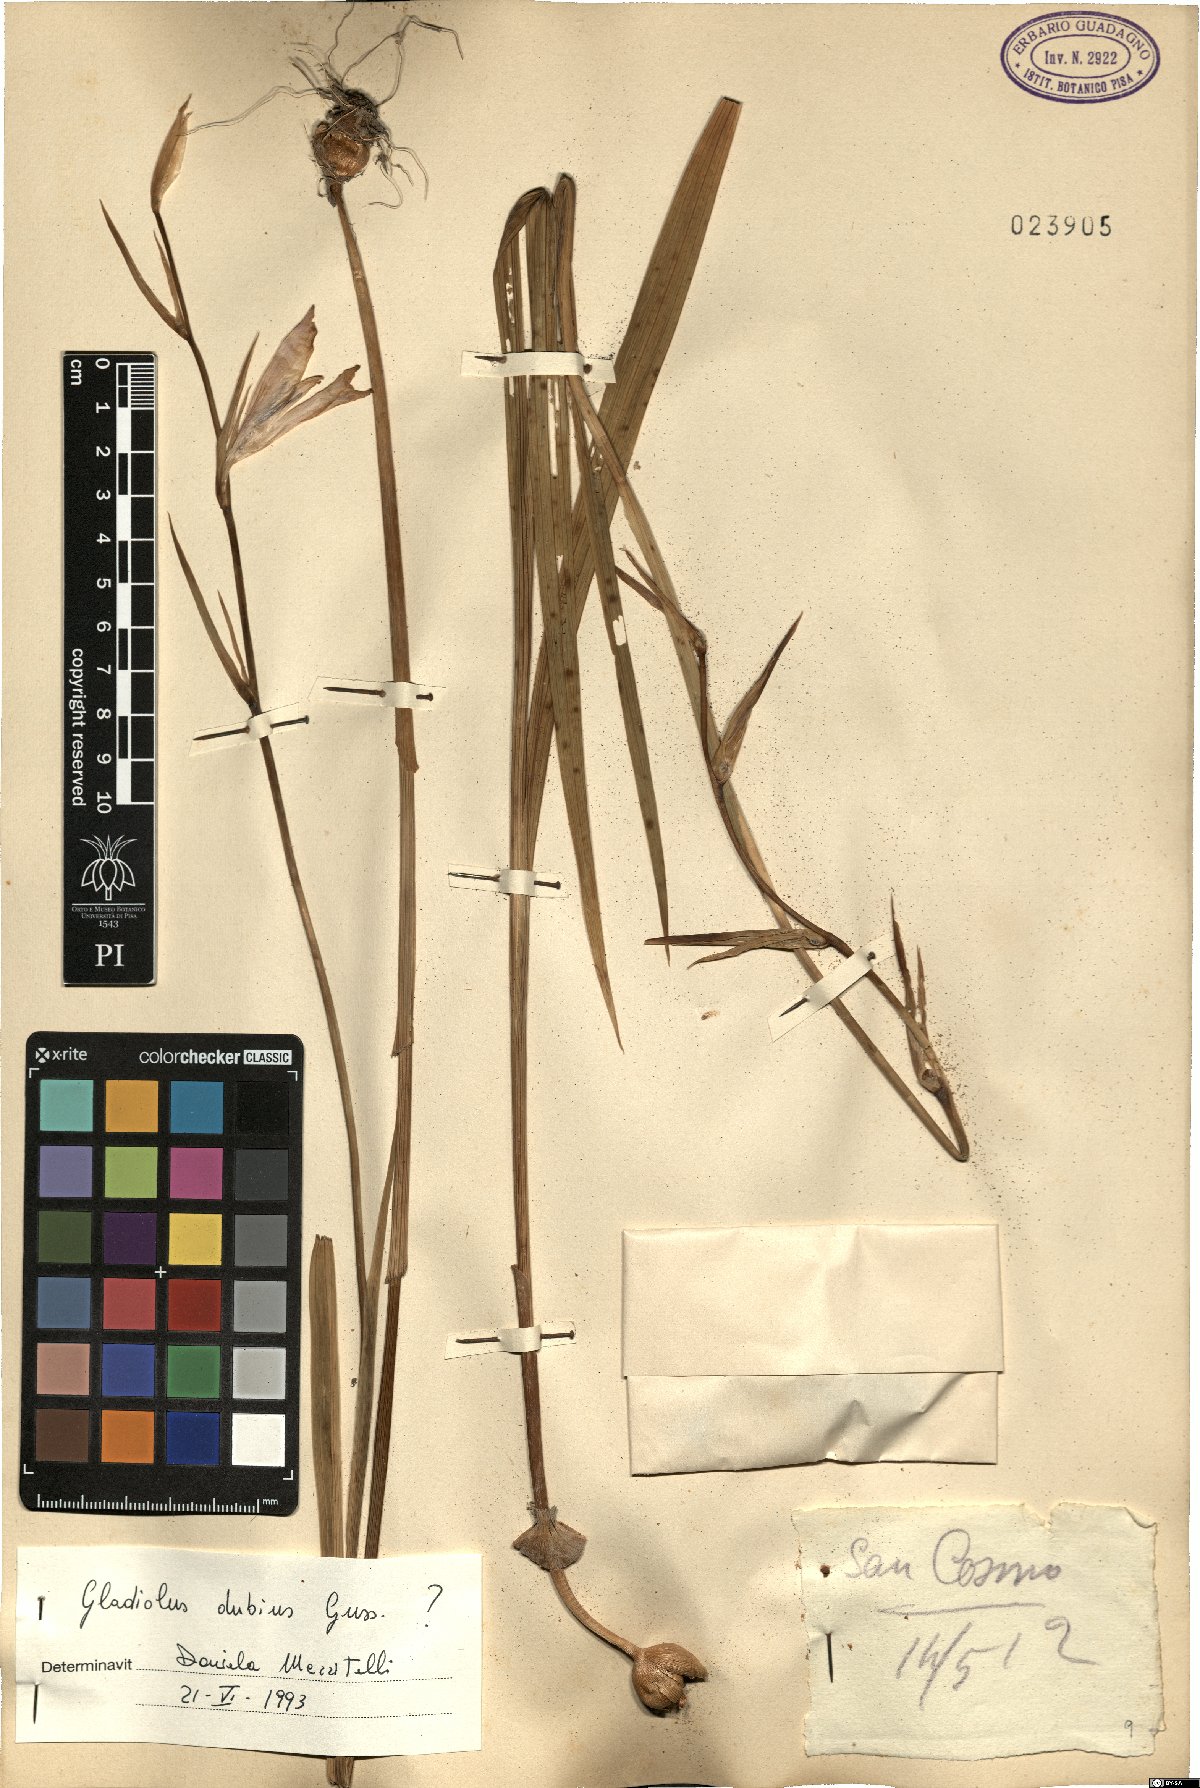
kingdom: Plantae
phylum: Tracheophyta
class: Liliopsida
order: Asparagales
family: Iridaceae
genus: Gladiolus
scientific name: Gladiolus dubius
